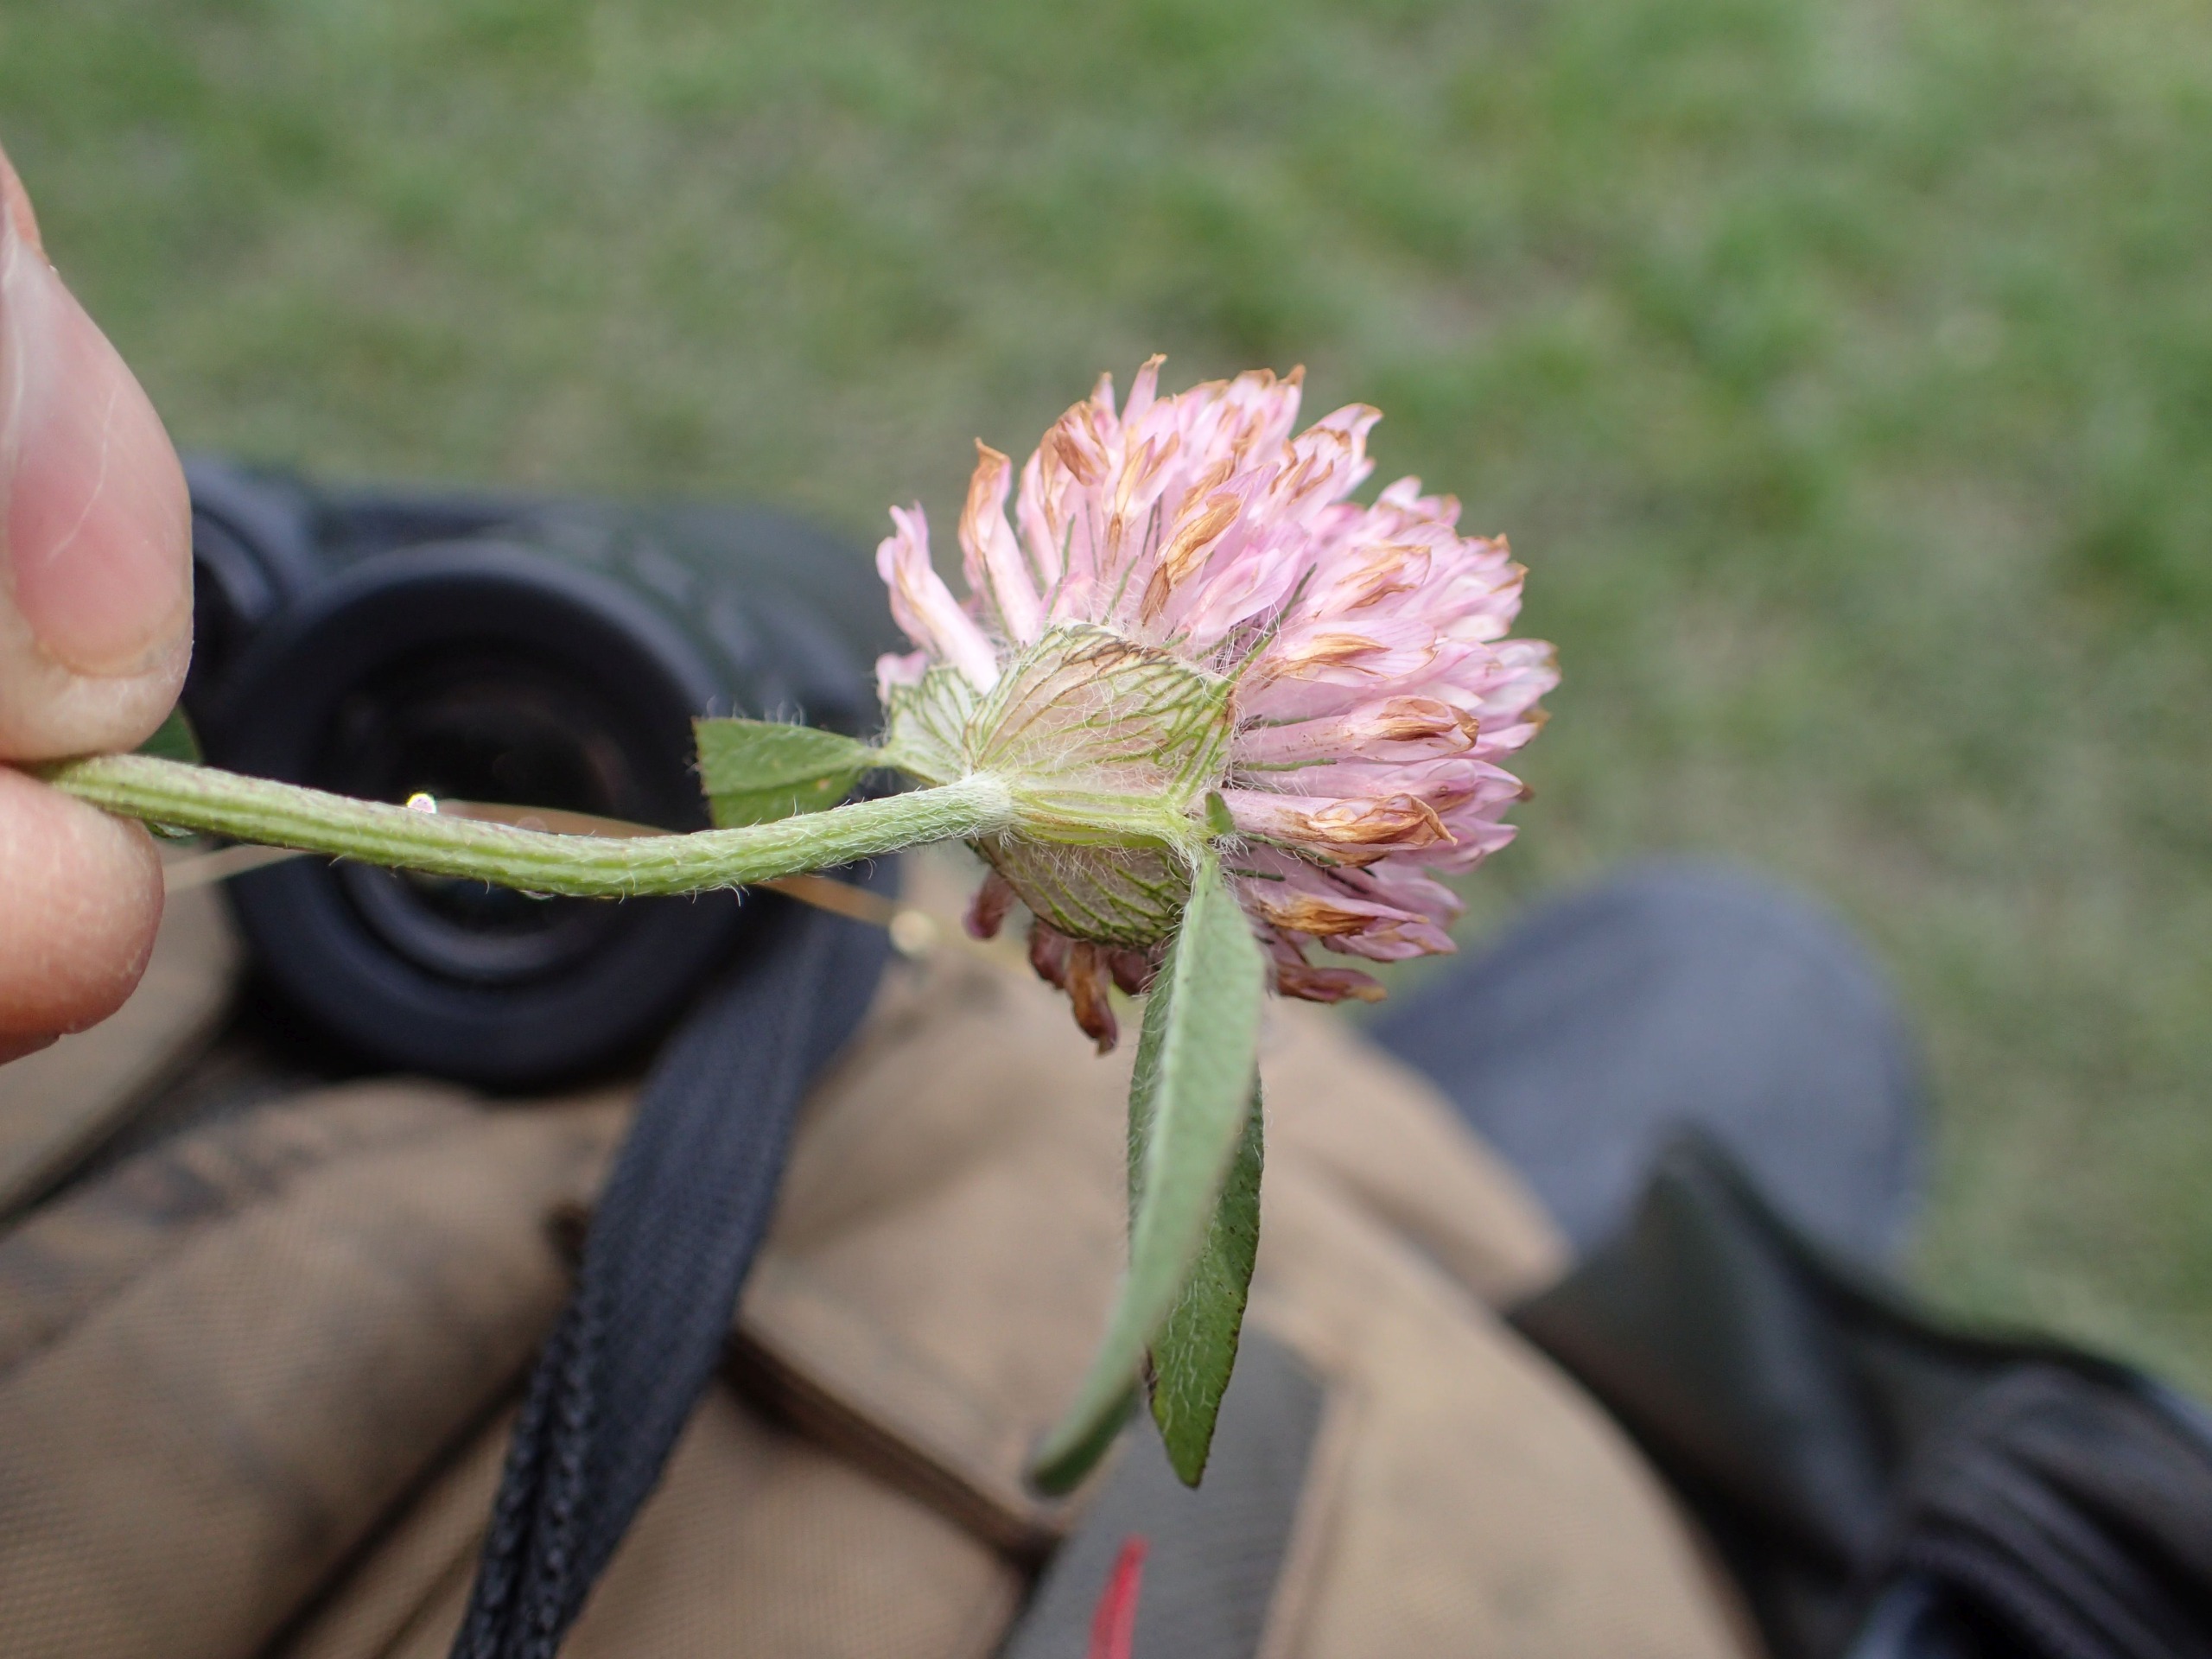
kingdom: Plantae
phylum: Tracheophyta
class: Magnoliopsida
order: Fabales
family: Fabaceae
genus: Trifolium
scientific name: Trifolium pratense
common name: Rød-kløver
